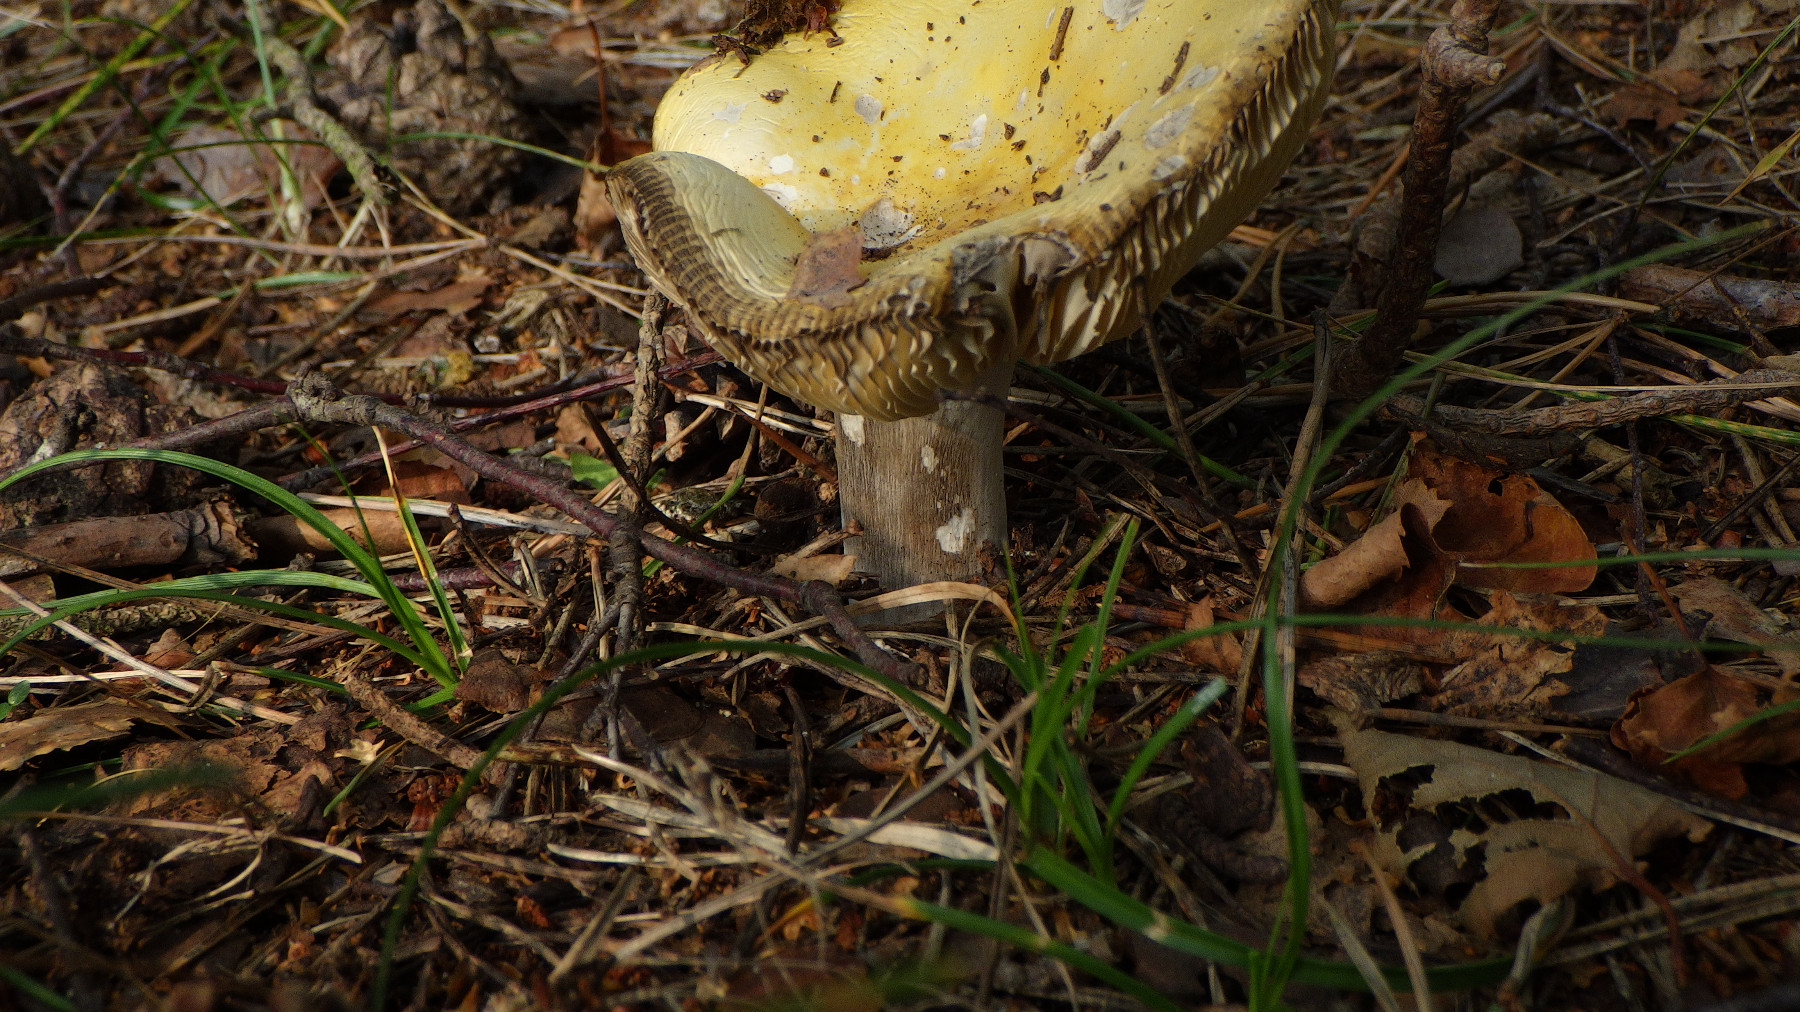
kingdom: Fungi
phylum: Basidiomycota
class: Agaricomycetes
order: Russulales
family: Russulaceae
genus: Russula
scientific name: Russula claroflava
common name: birke-skørhat
